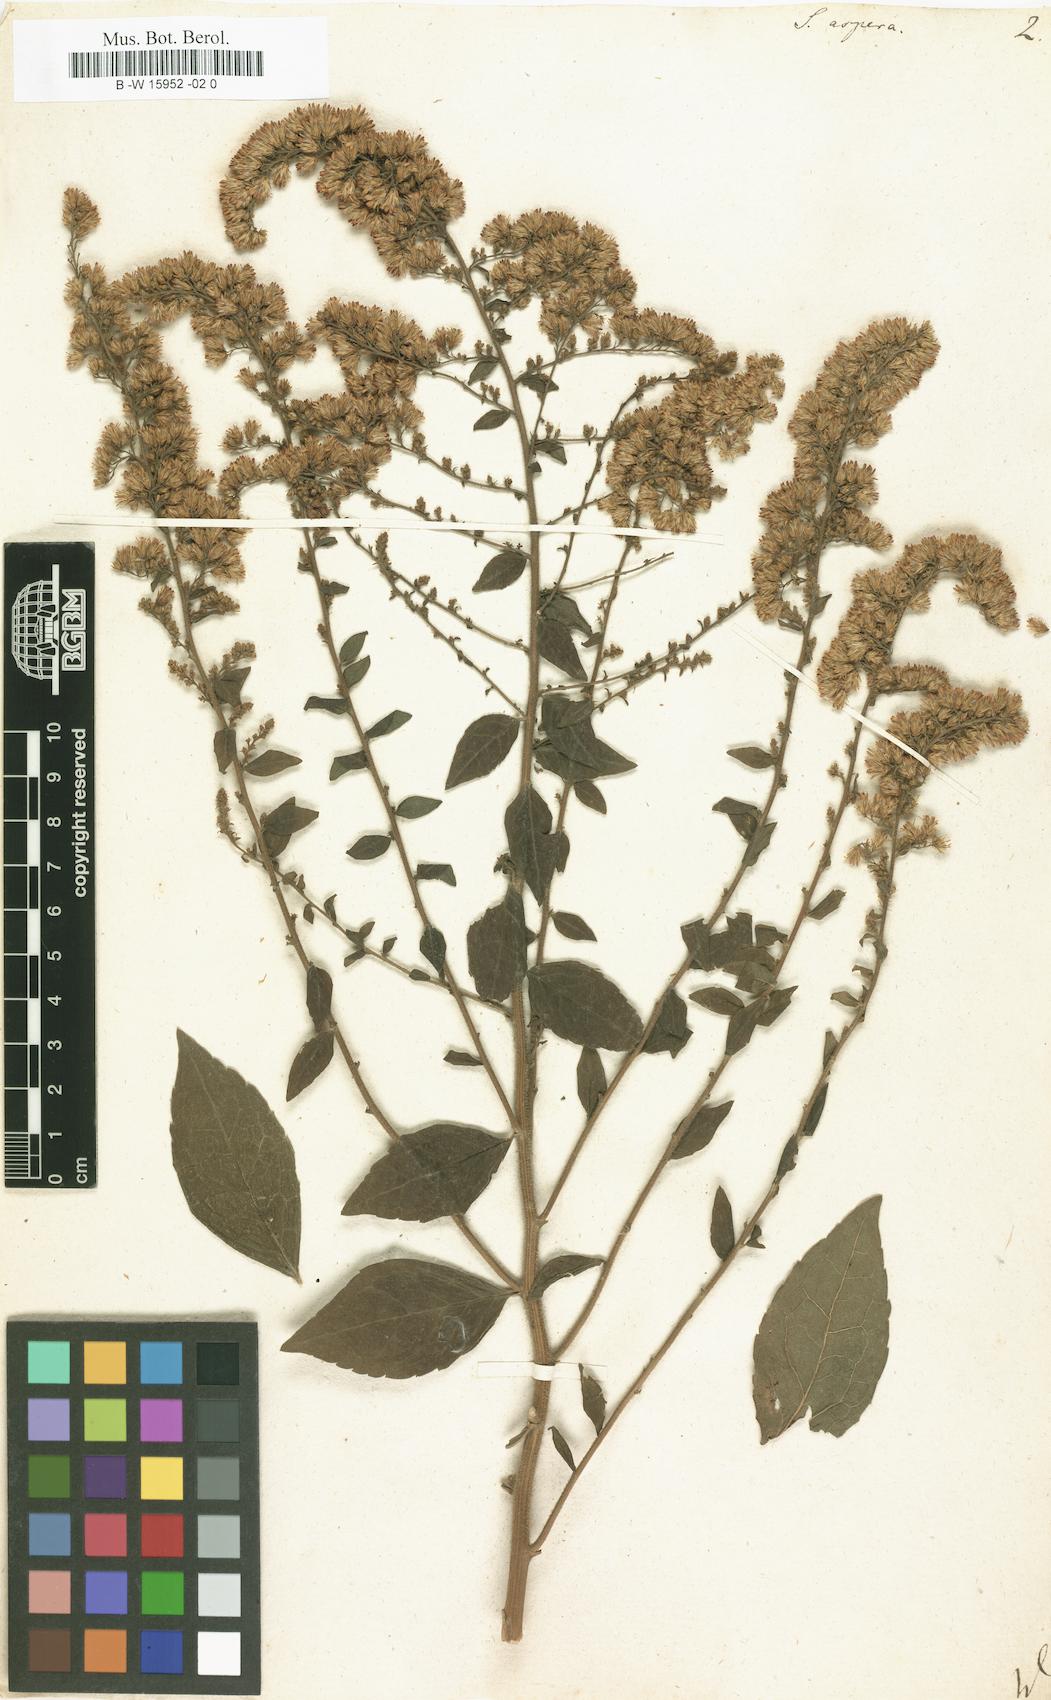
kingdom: Plantae
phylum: Tracheophyta
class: Magnoliopsida
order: Asterales
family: Asteraceae
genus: Solidago
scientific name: Solidago rugosa
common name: Rough-stemmed goldenrod
